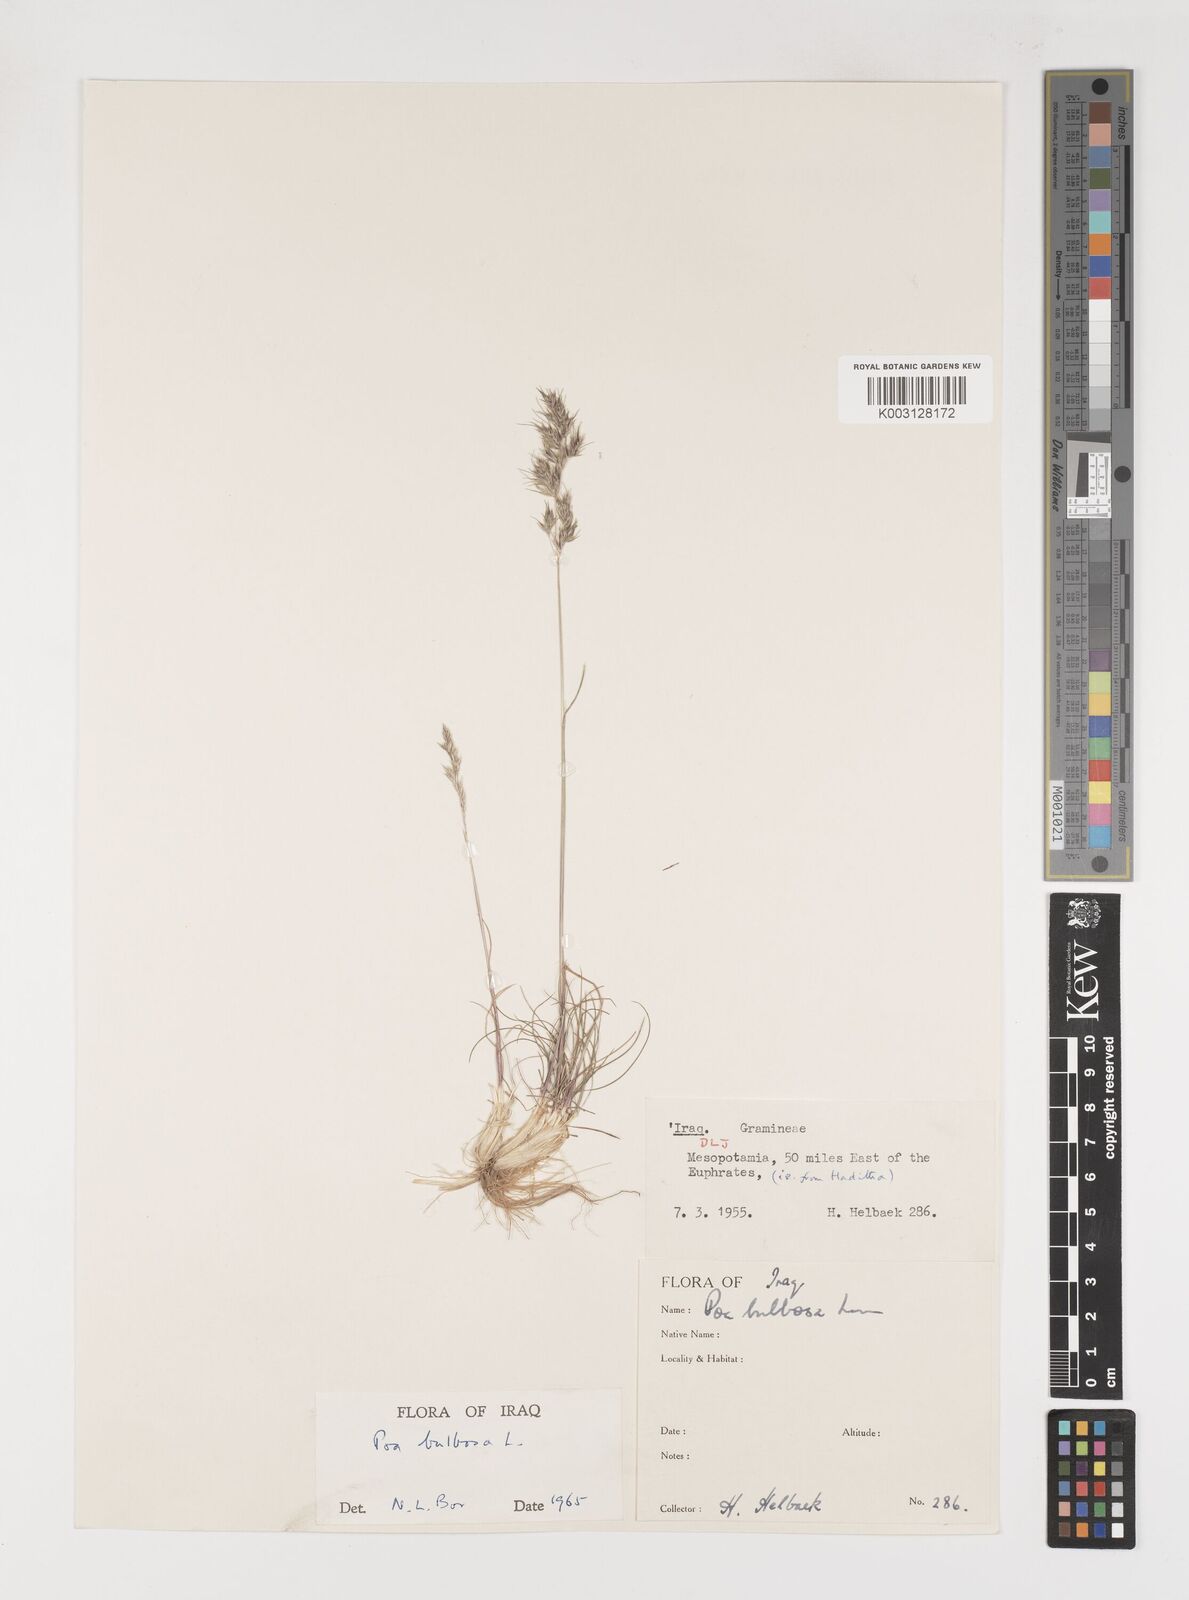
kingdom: Plantae
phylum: Tracheophyta
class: Liliopsida
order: Poales
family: Poaceae
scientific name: Poaceae
